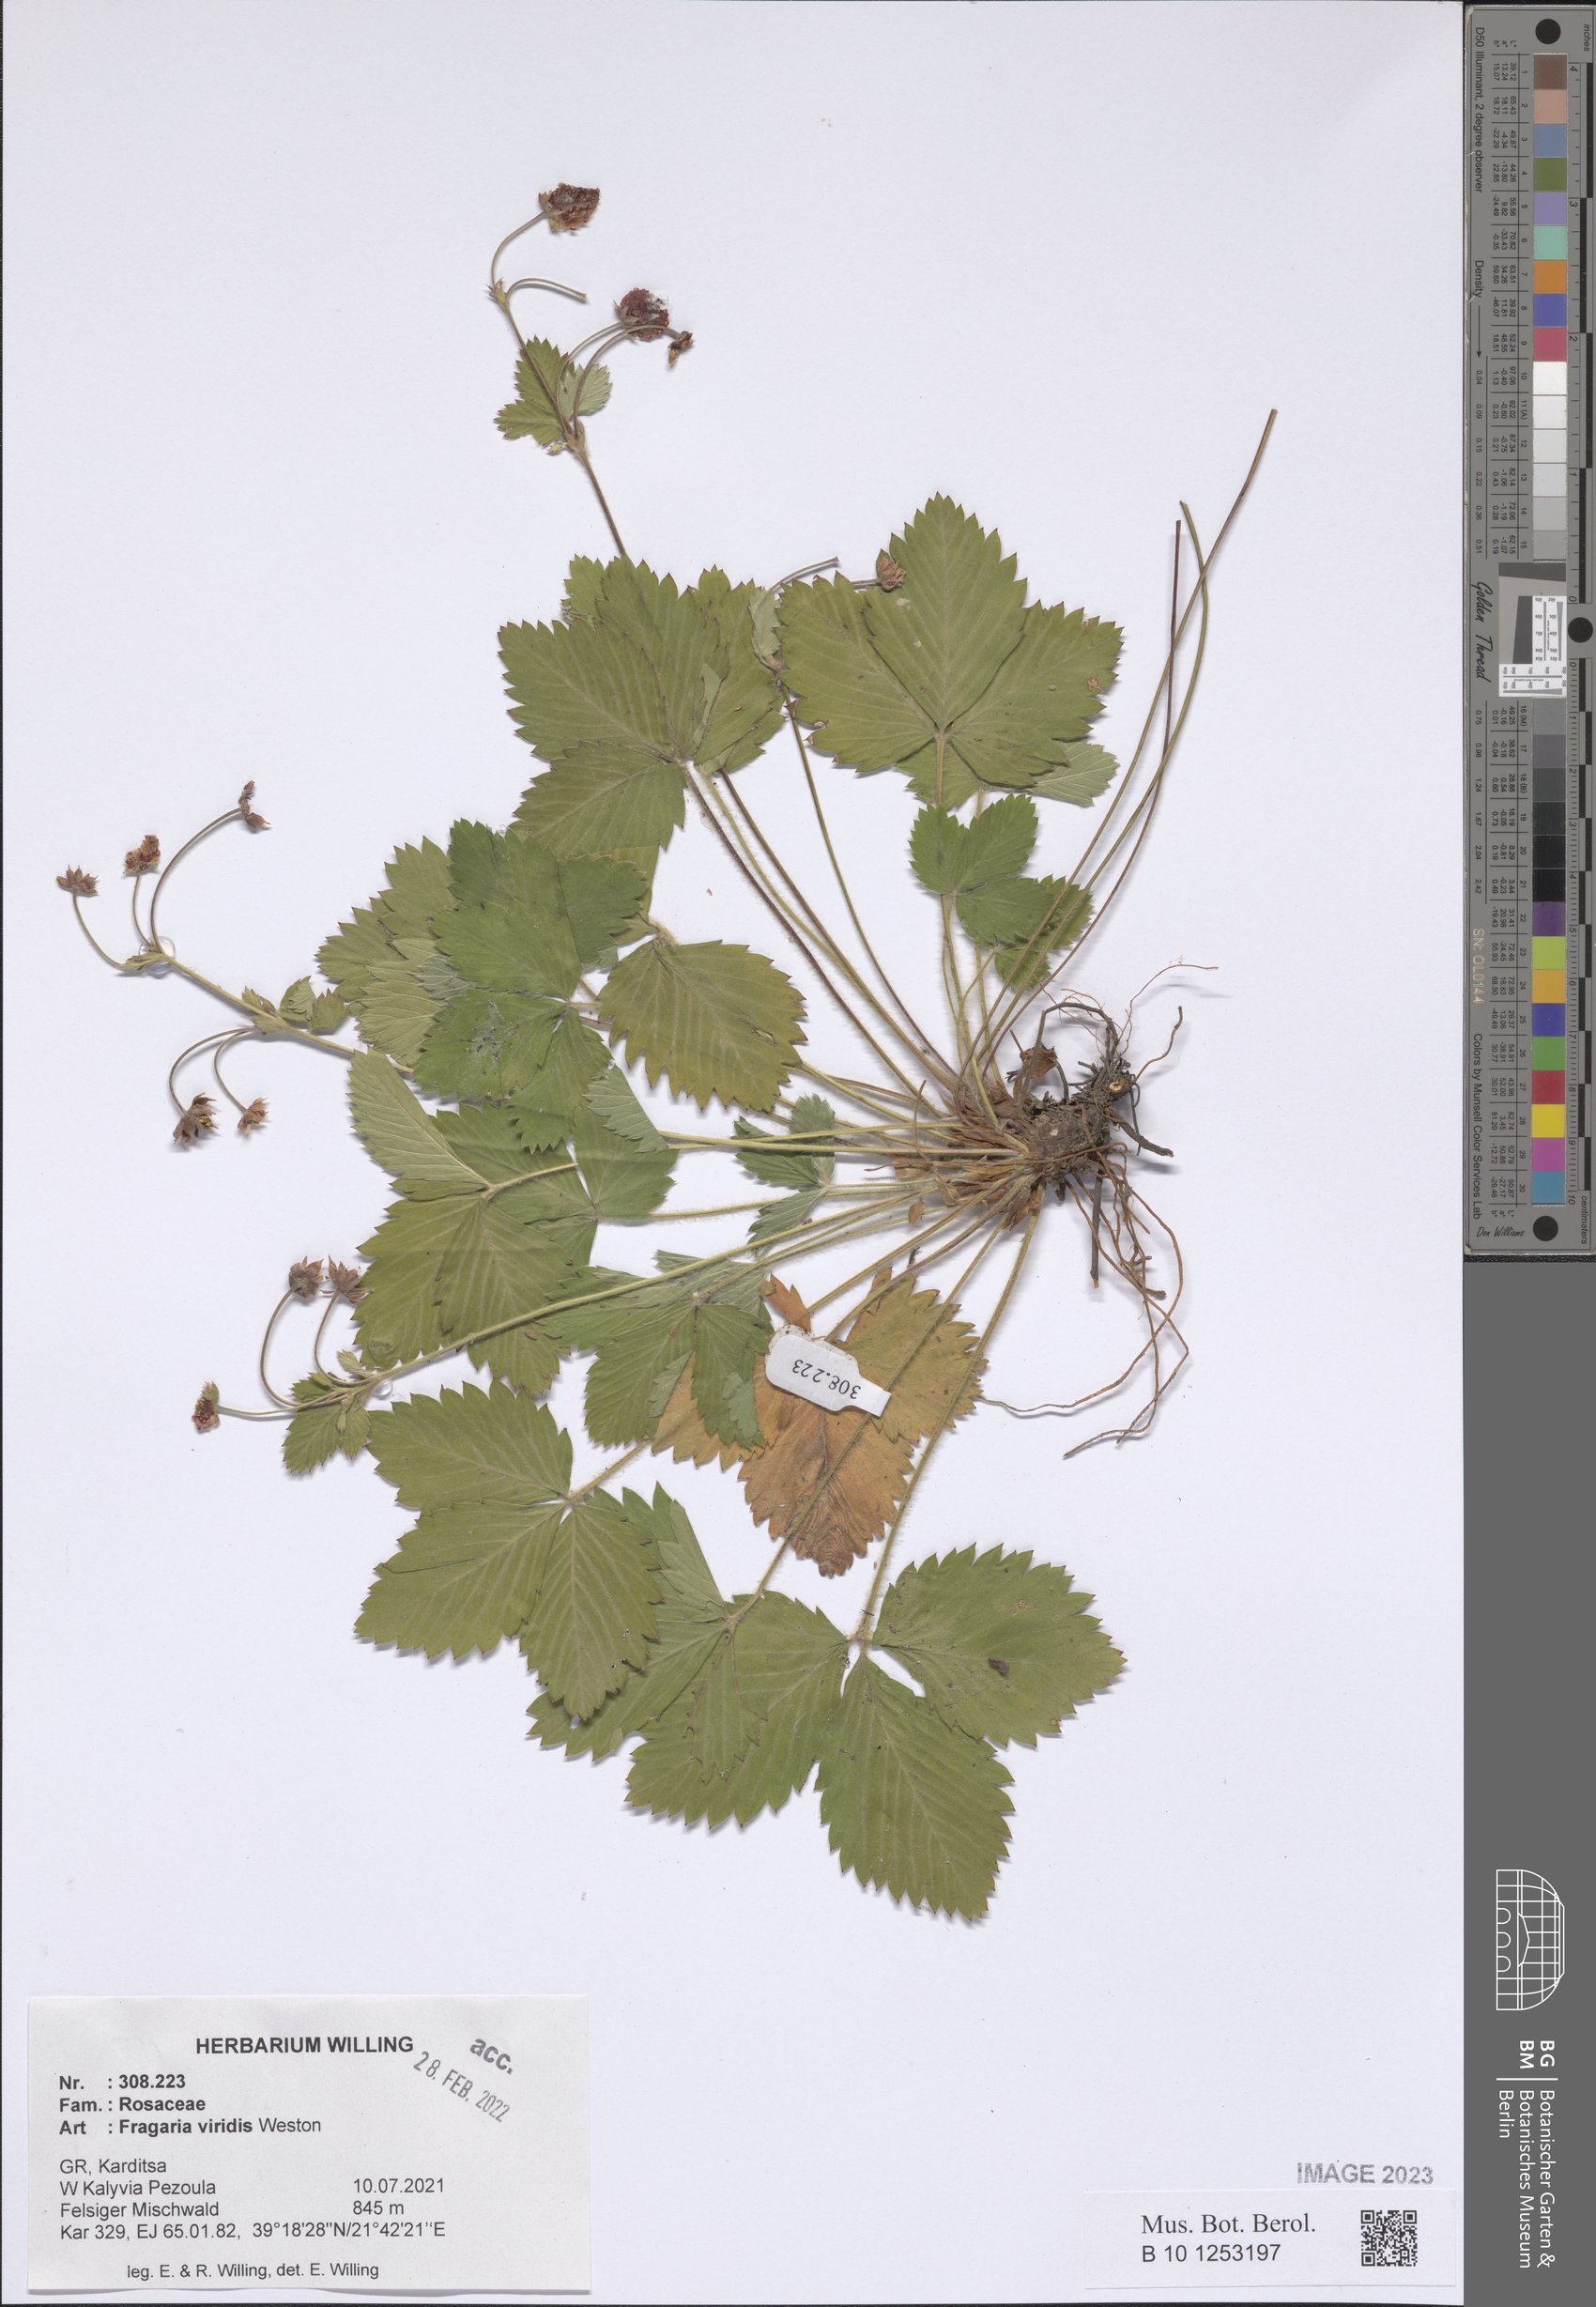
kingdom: Plantae
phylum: Tracheophyta
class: Magnoliopsida
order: Rosales
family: Rosaceae
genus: Fragaria
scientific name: Fragaria viridis
